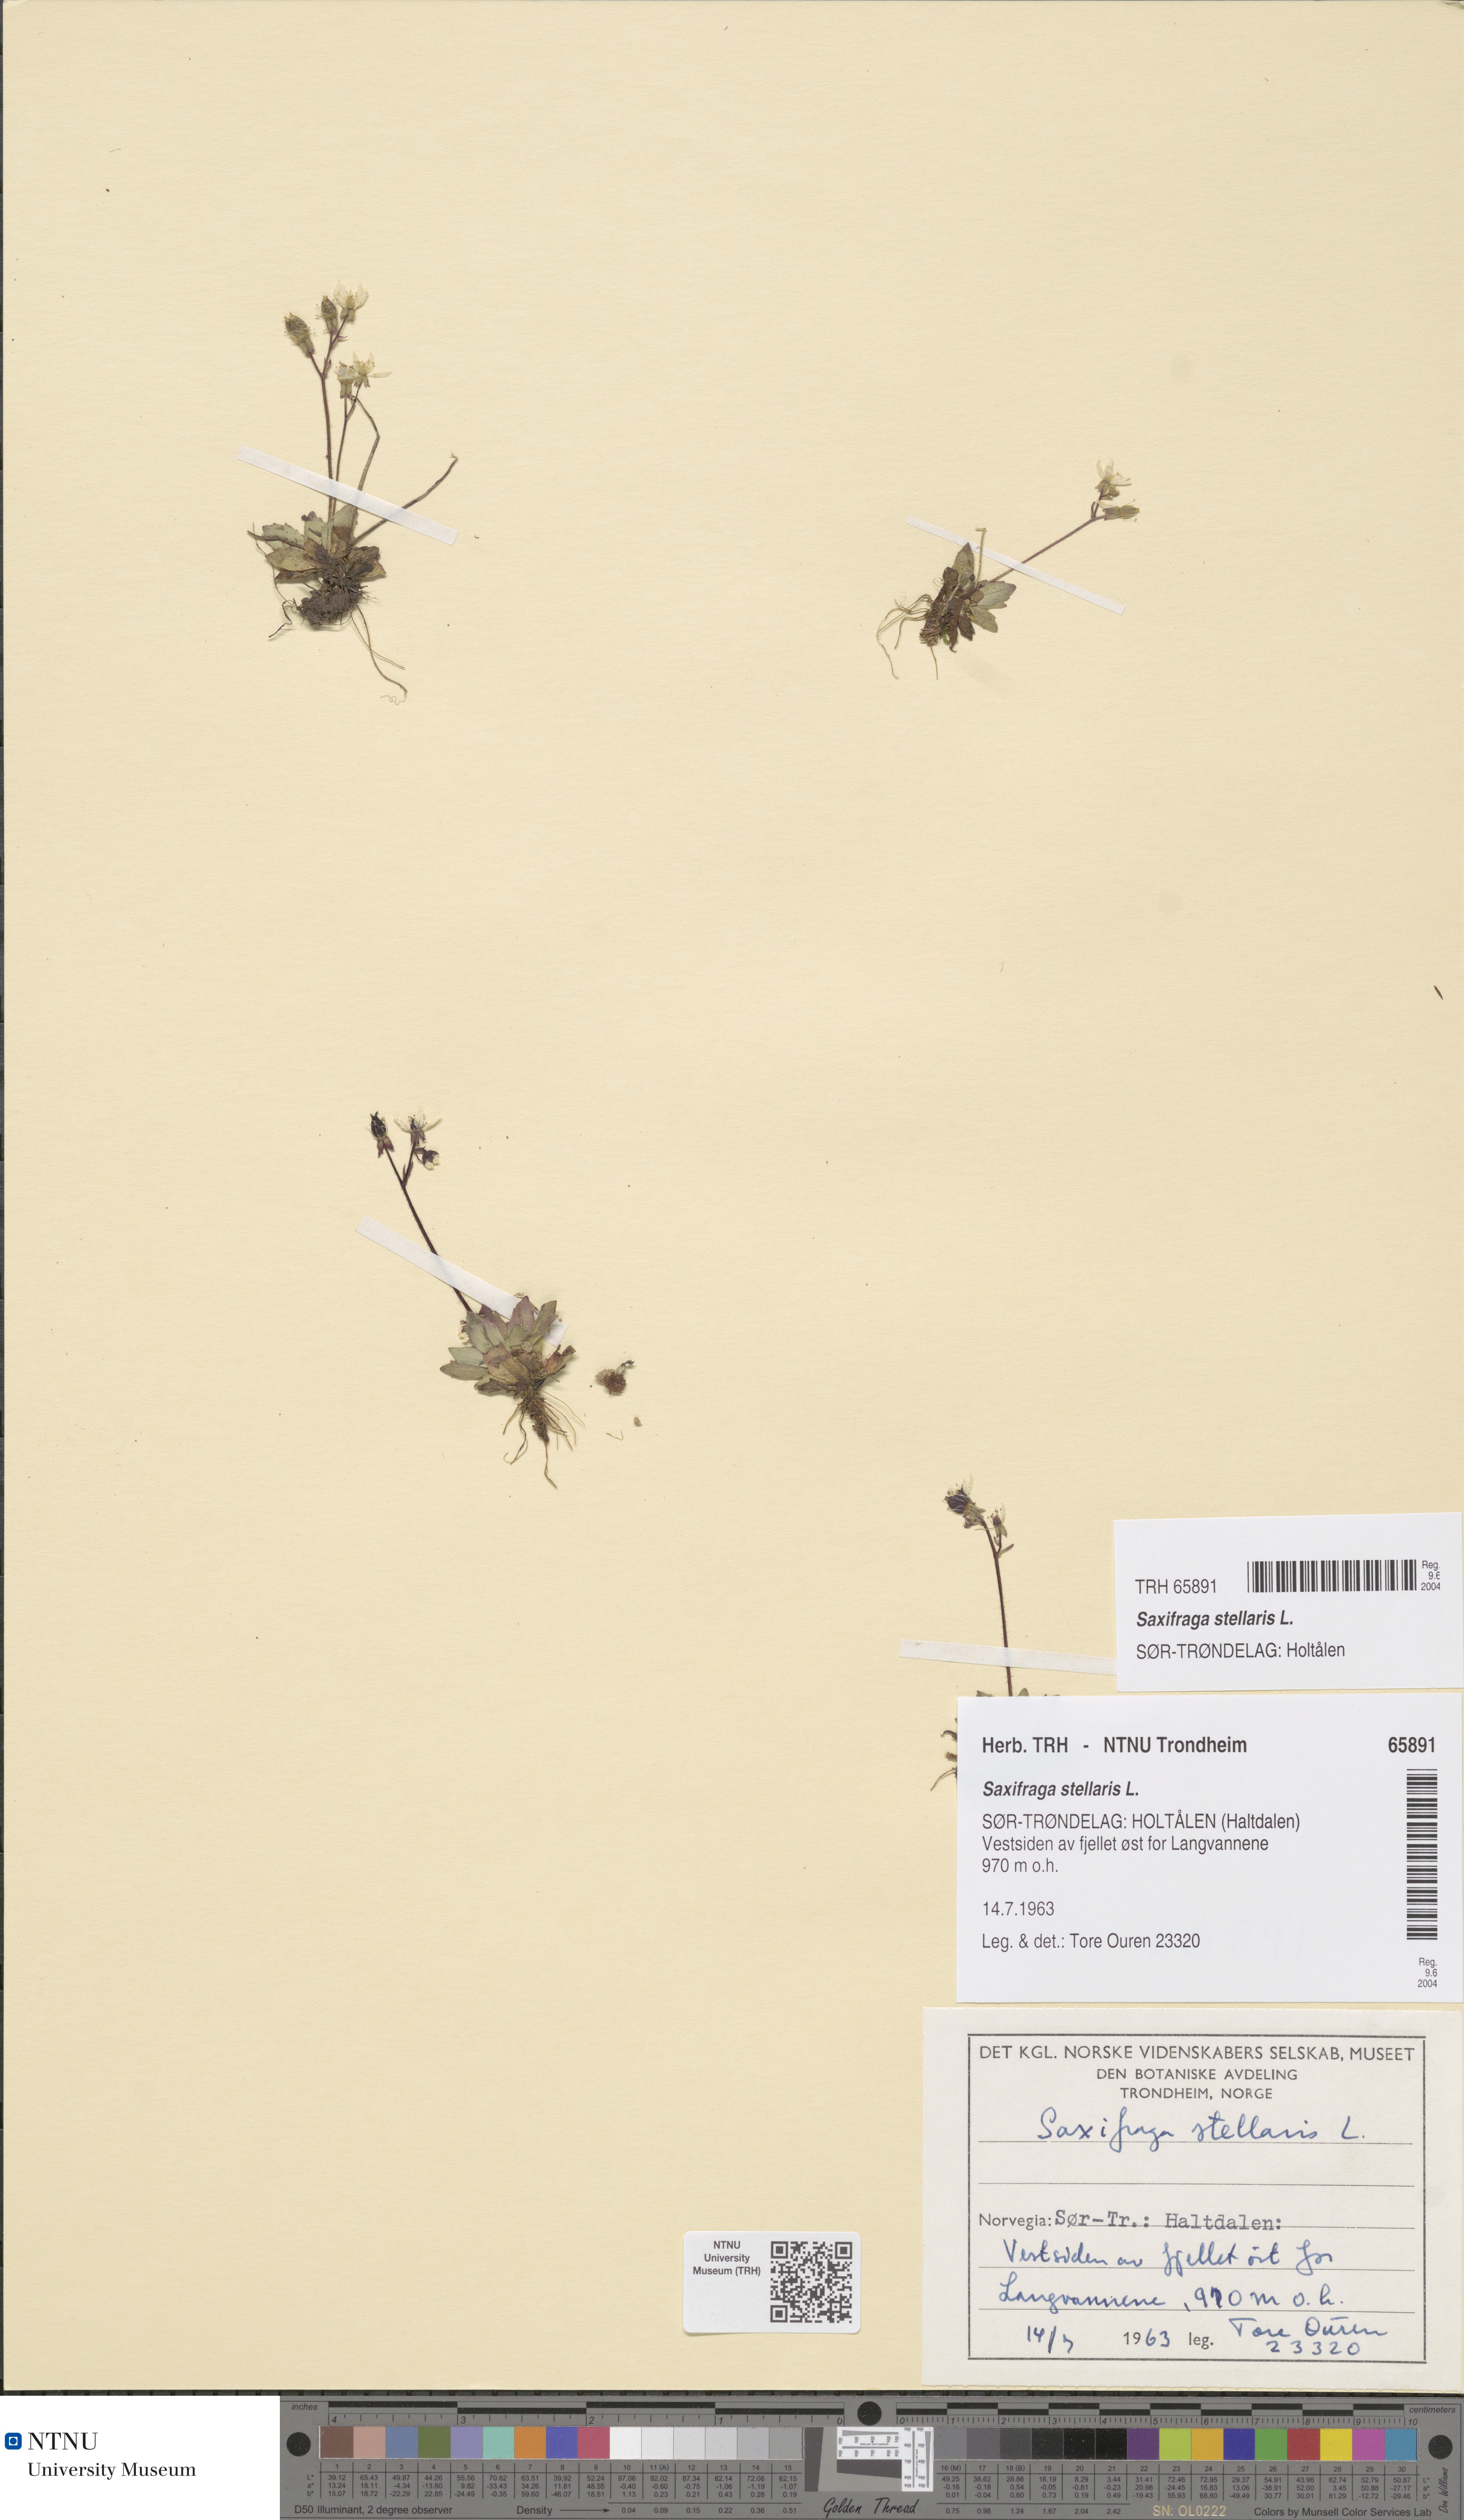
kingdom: Plantae
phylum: Tracheophyta
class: Magnoliopsida
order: Saxifragales
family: Saxifragaceae
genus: Micranthes
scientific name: Micranthes stellaris
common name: Starry saxifrage
